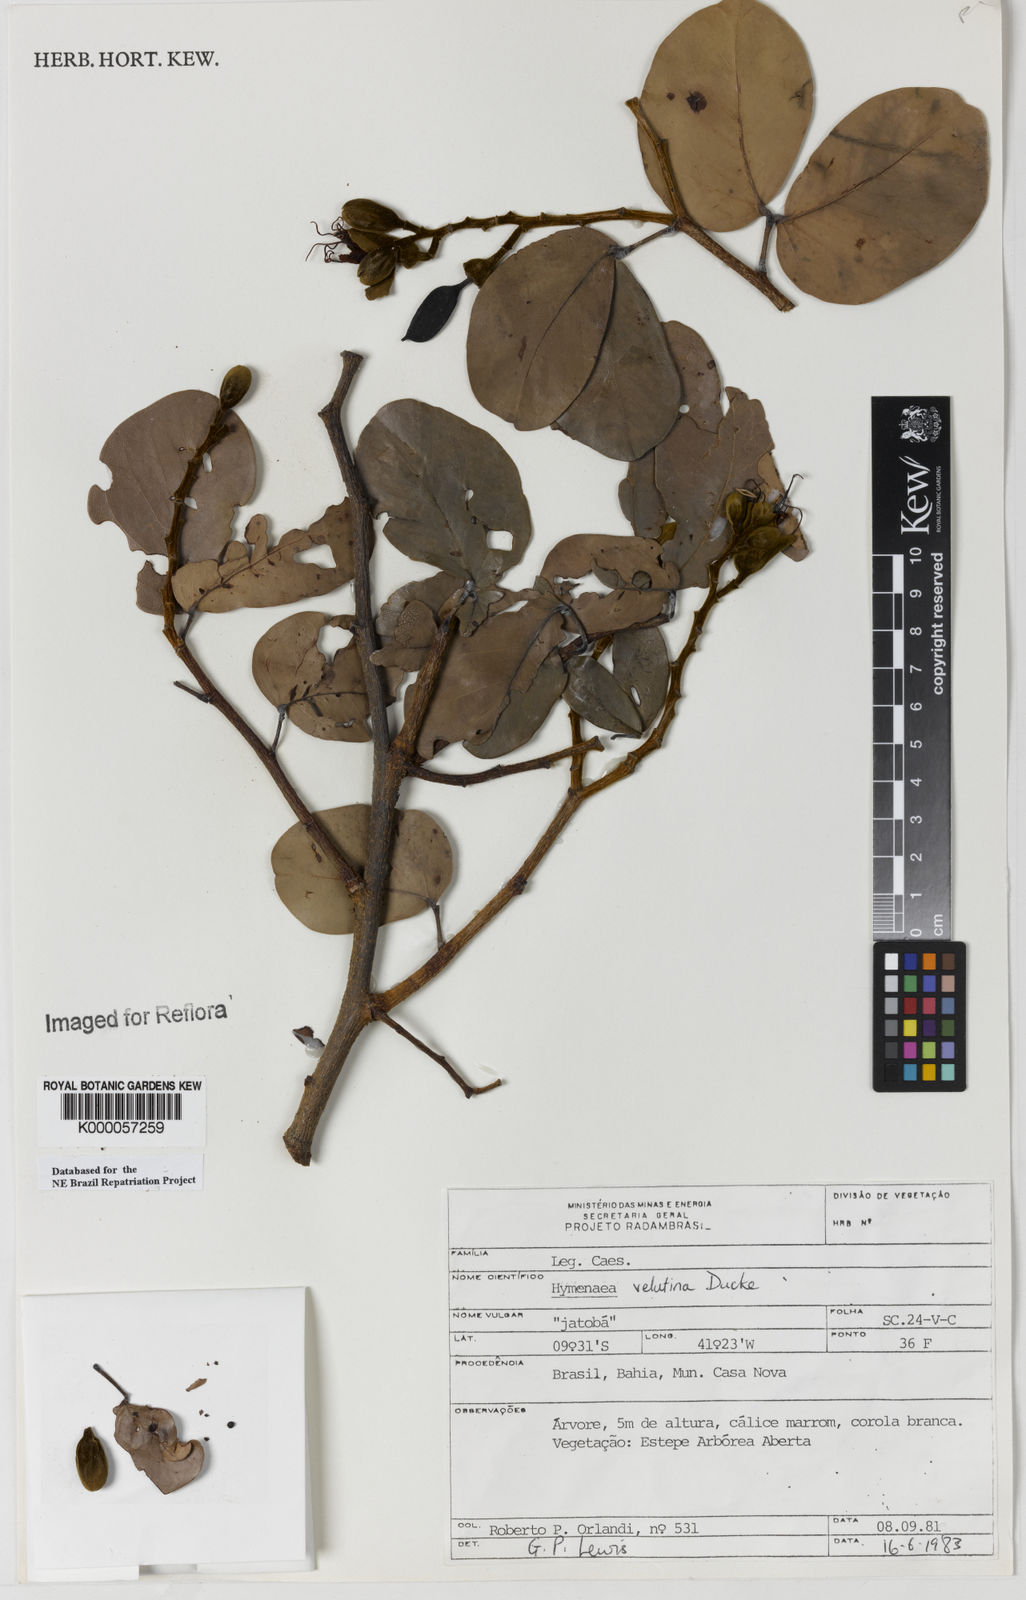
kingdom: Plantae
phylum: Tracheophyta
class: Magnoliopsida
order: Fabales
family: Fabaceae
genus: Hymenaea
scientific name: Hymenaea velutina
